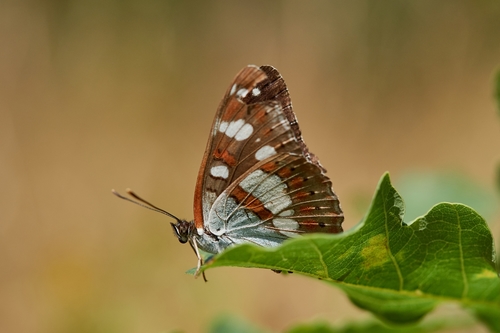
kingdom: Animalia
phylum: Arthropoda
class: Insecta
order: Lepidoptera
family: Nymphalidae
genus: Limenitis
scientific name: Limenitis reducta
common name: Southern white admiral
